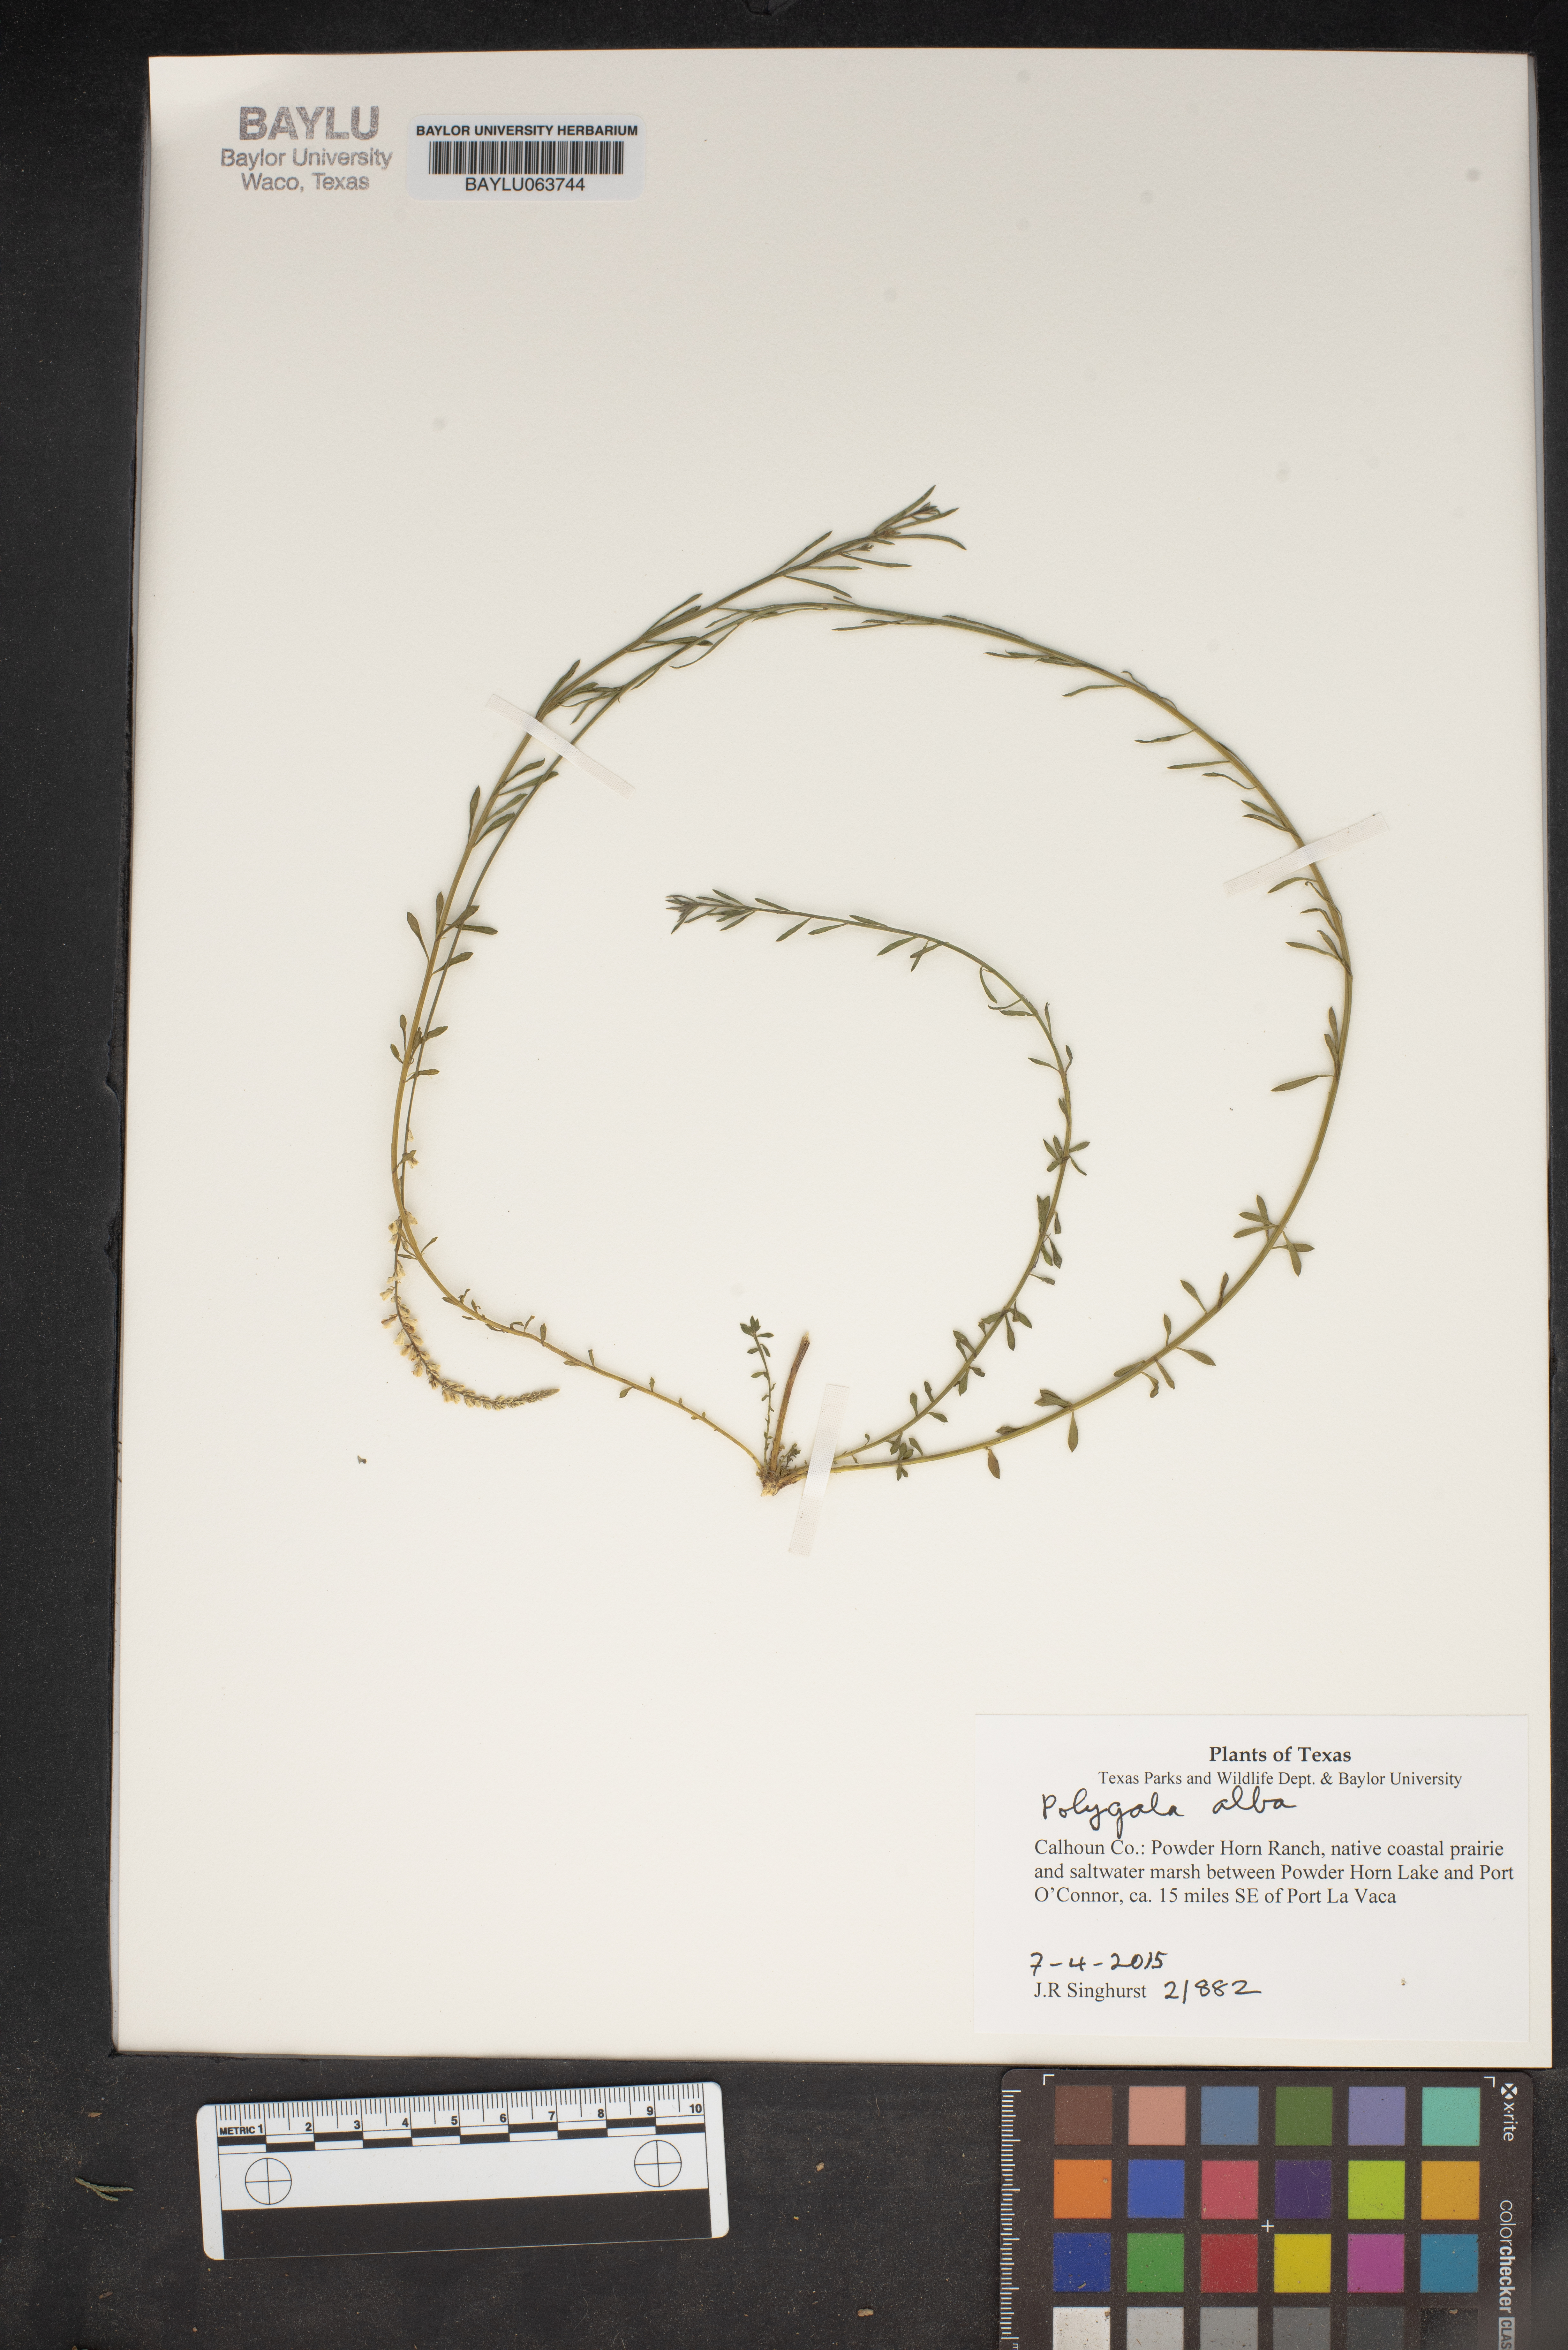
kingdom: Plantae
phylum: Tracheophyta
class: Magnoliopsida
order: Fabales
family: Polygalaceae
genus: Polygala
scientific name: Polygala alba
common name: White milkwort
